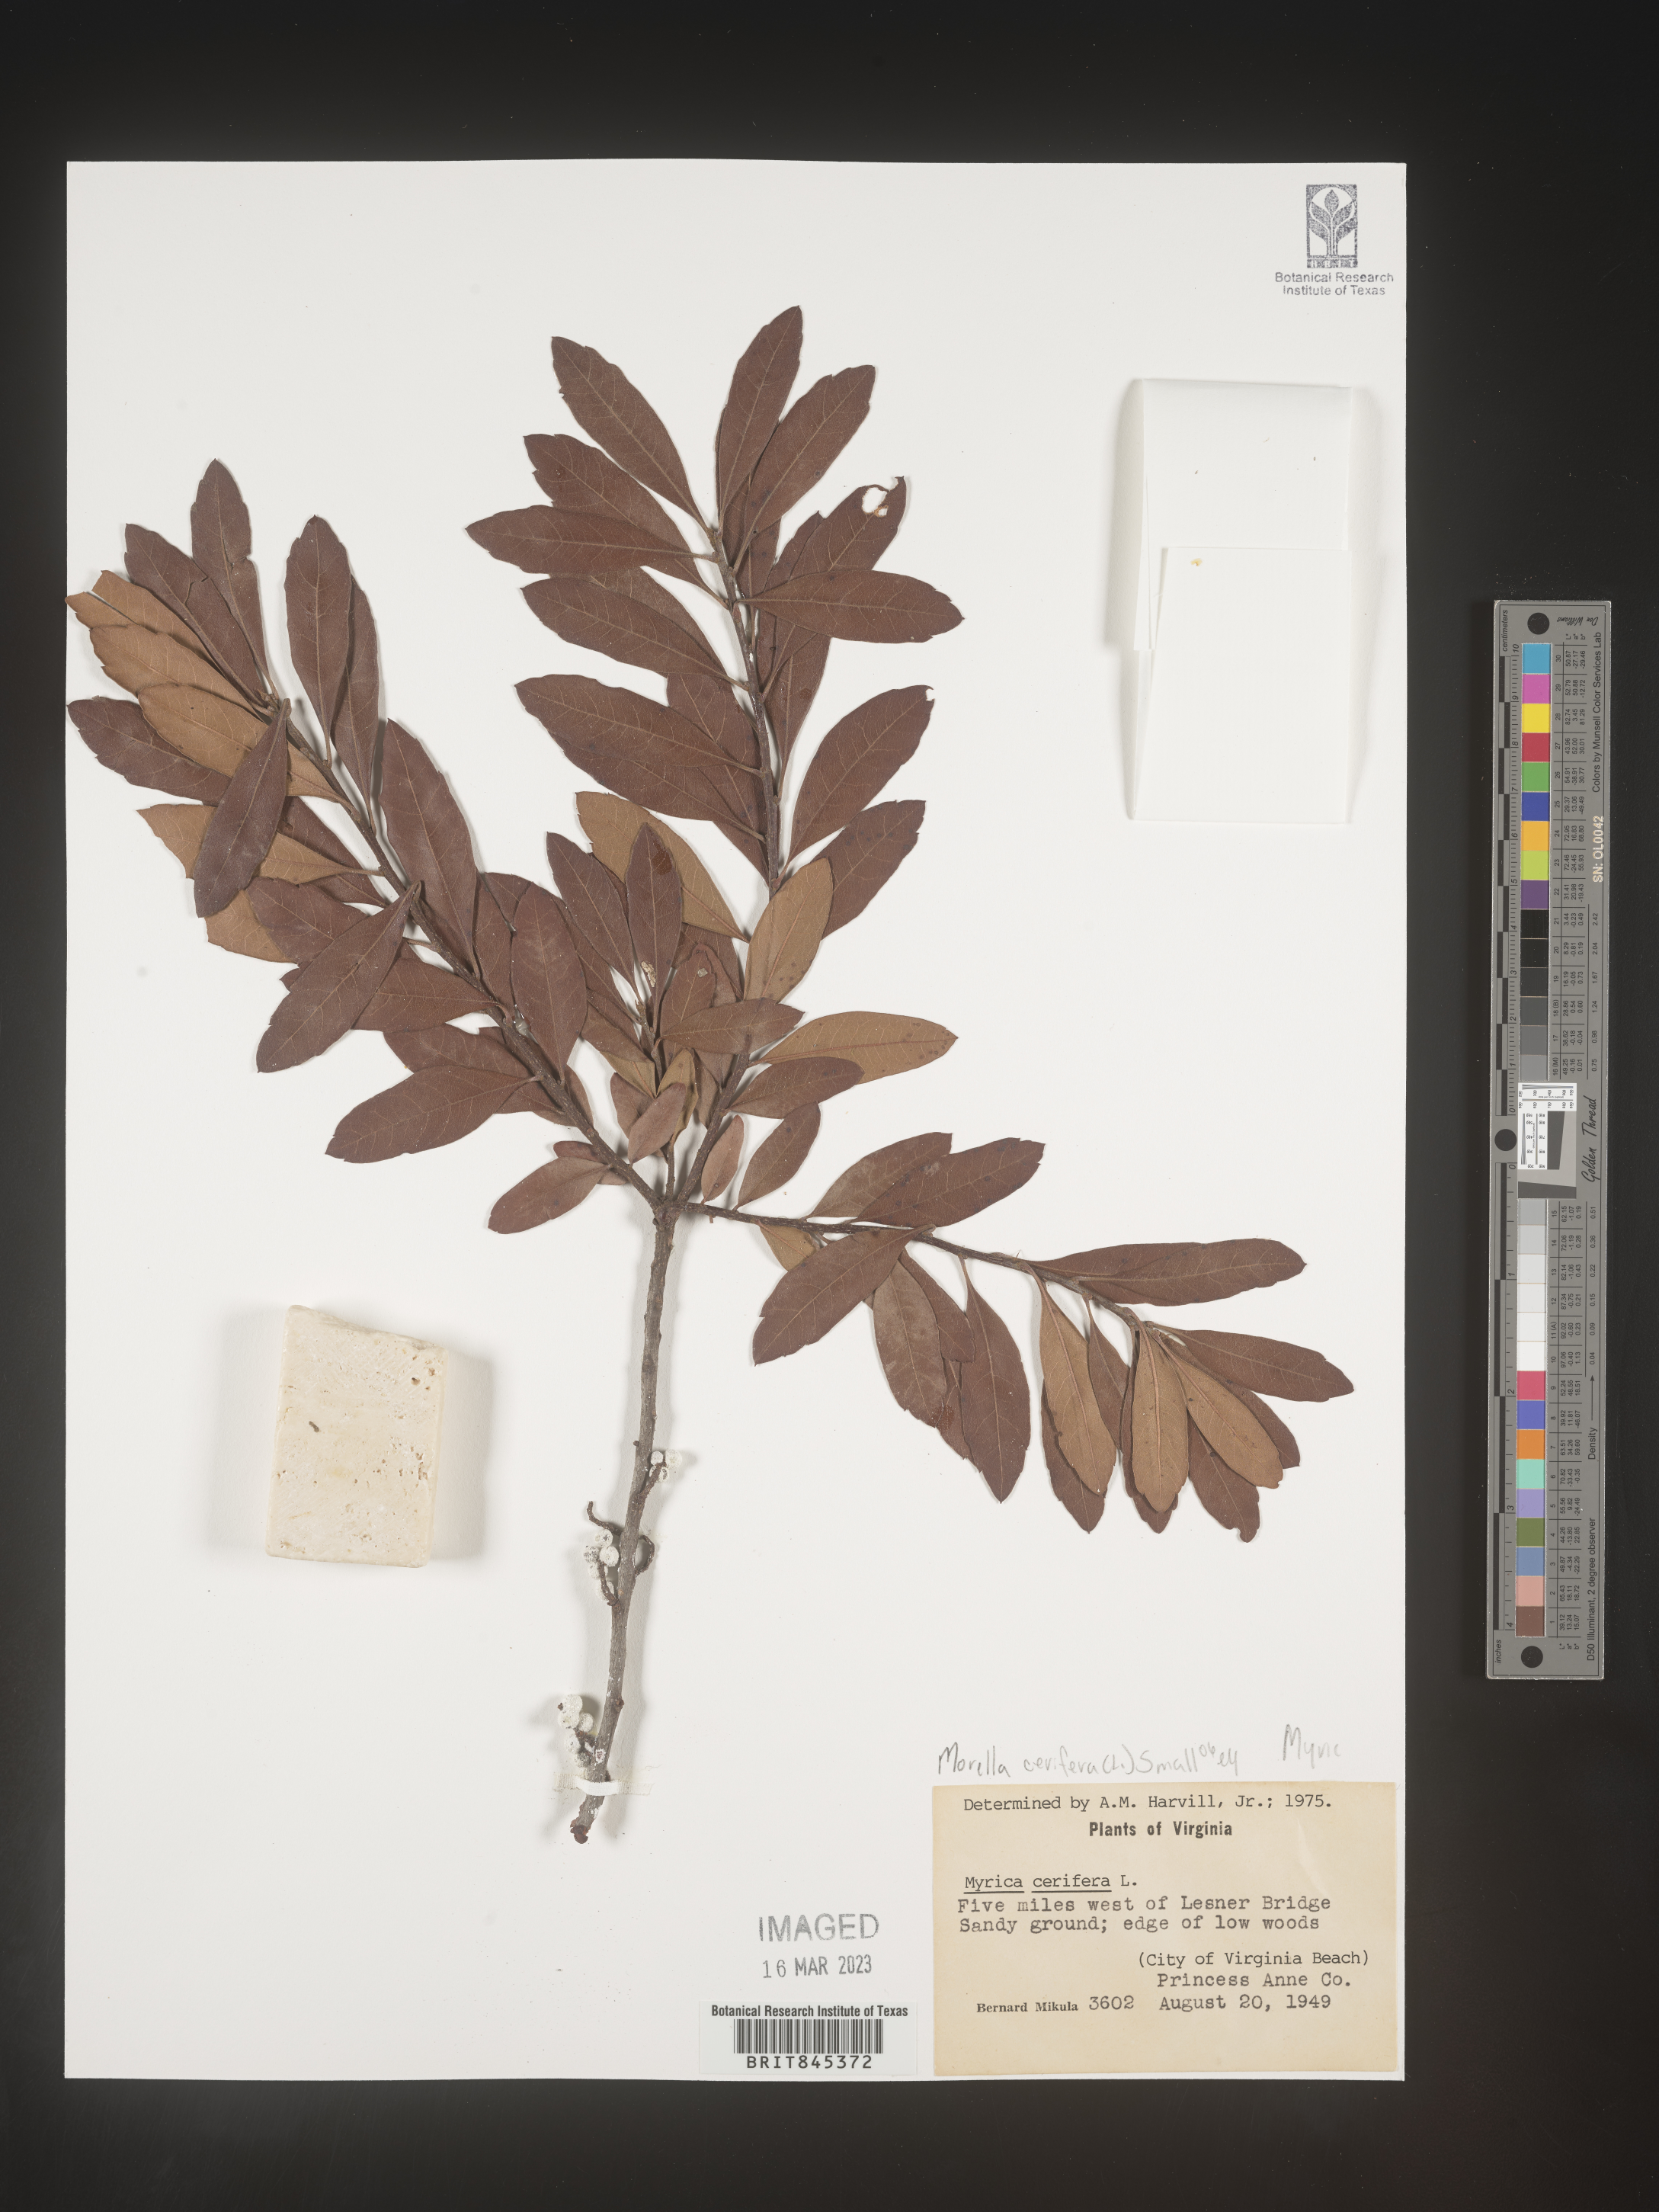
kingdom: Plantae
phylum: Tracheophyta
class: Magnoliopsida
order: Fagales
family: Myricaceae
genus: Morella
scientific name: Morella cerifera
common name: Wax myrtle
